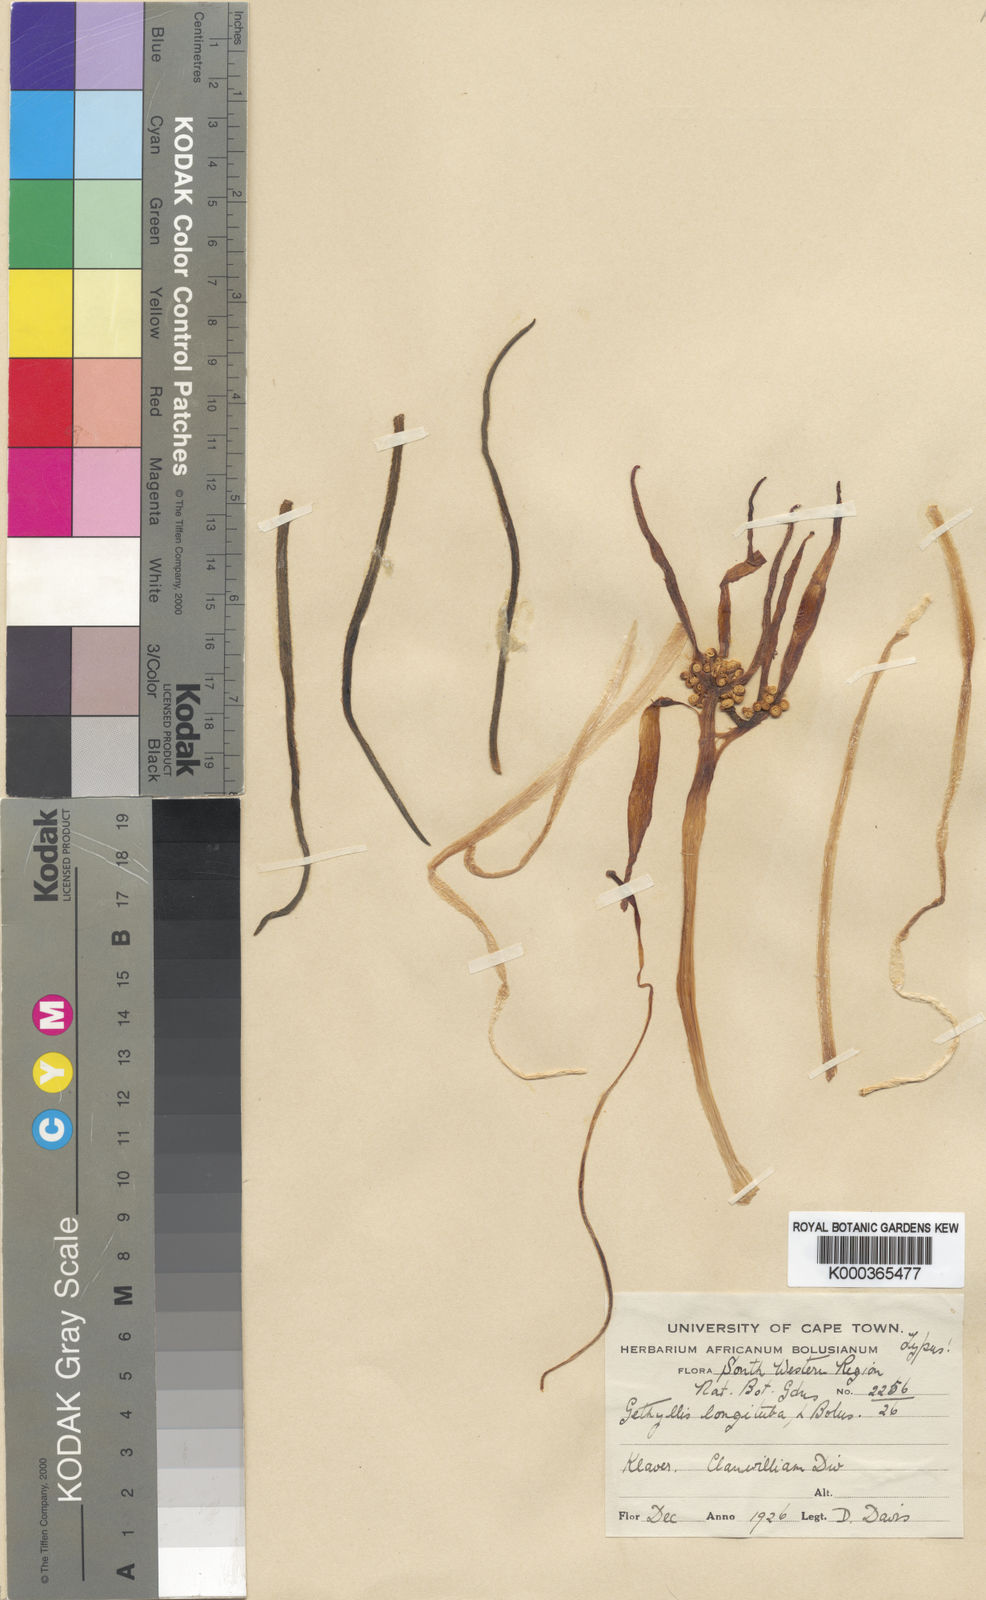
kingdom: Plantae
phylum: Tracheophyta
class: Liliopsida
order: Asparagales
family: Amaryllidaceae
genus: Gethyllis
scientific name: Gethyllis ciliaris
